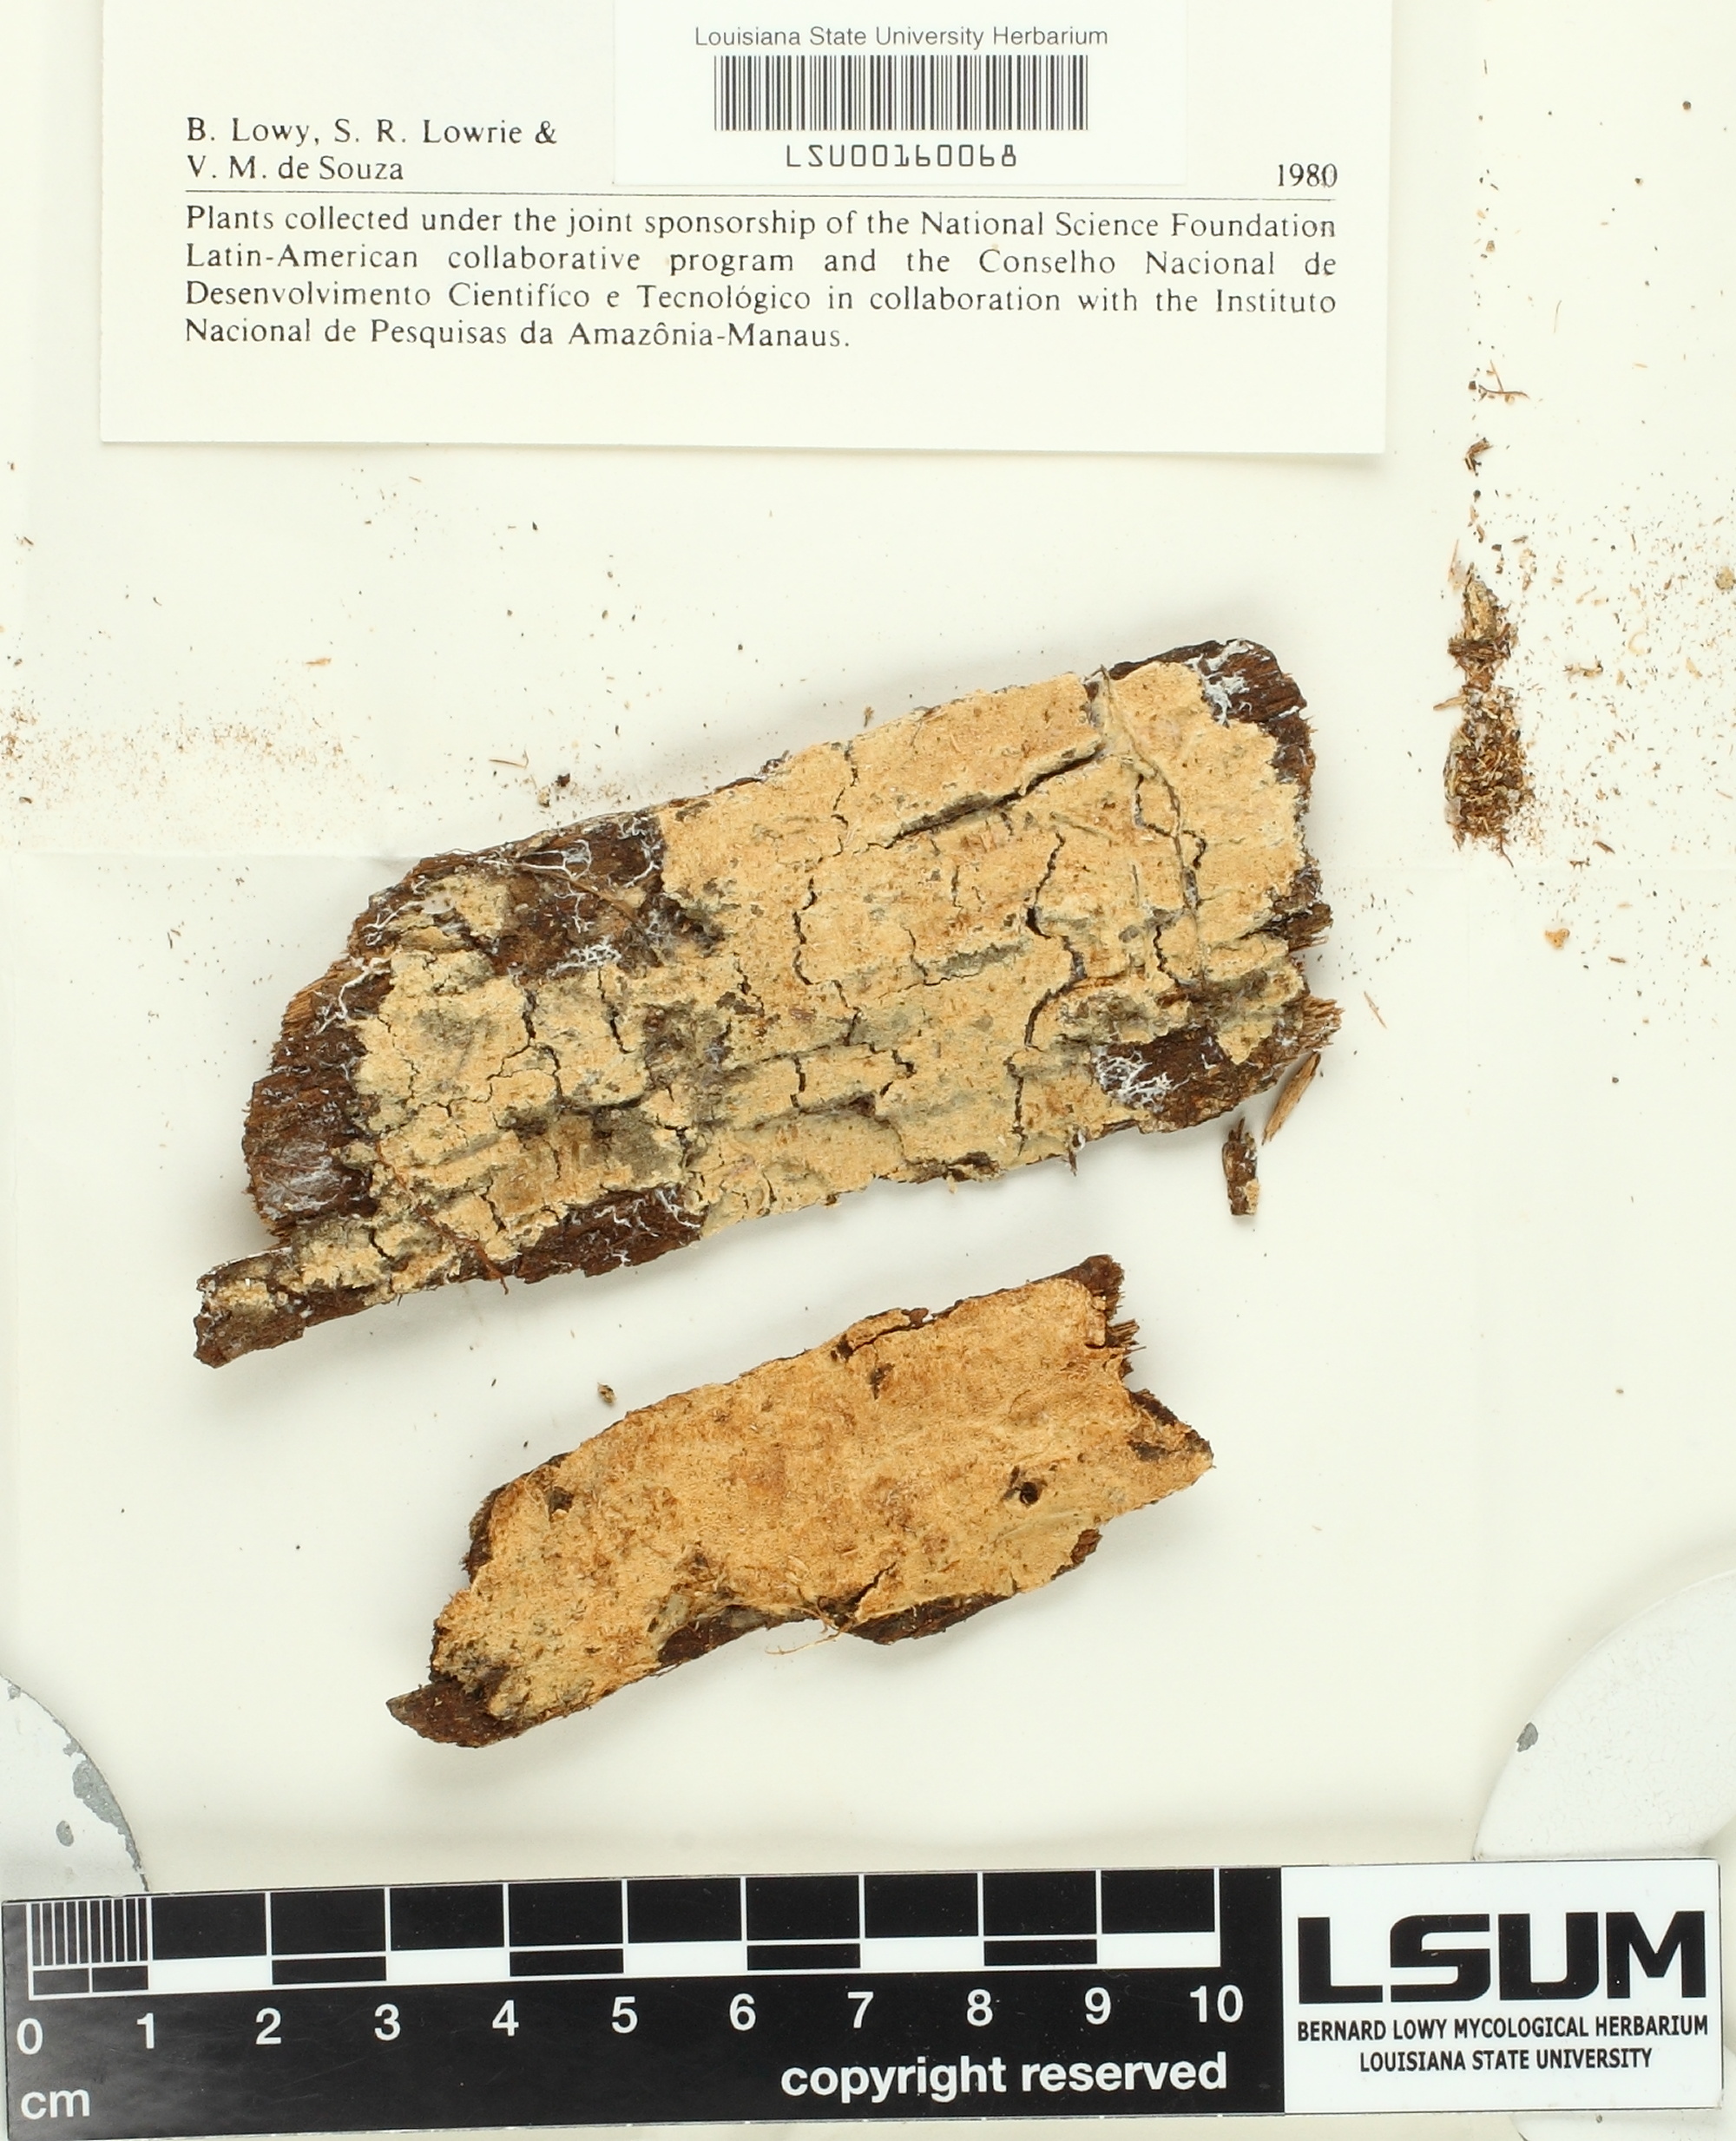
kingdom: Fungi
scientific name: Fungi
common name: Fungi
